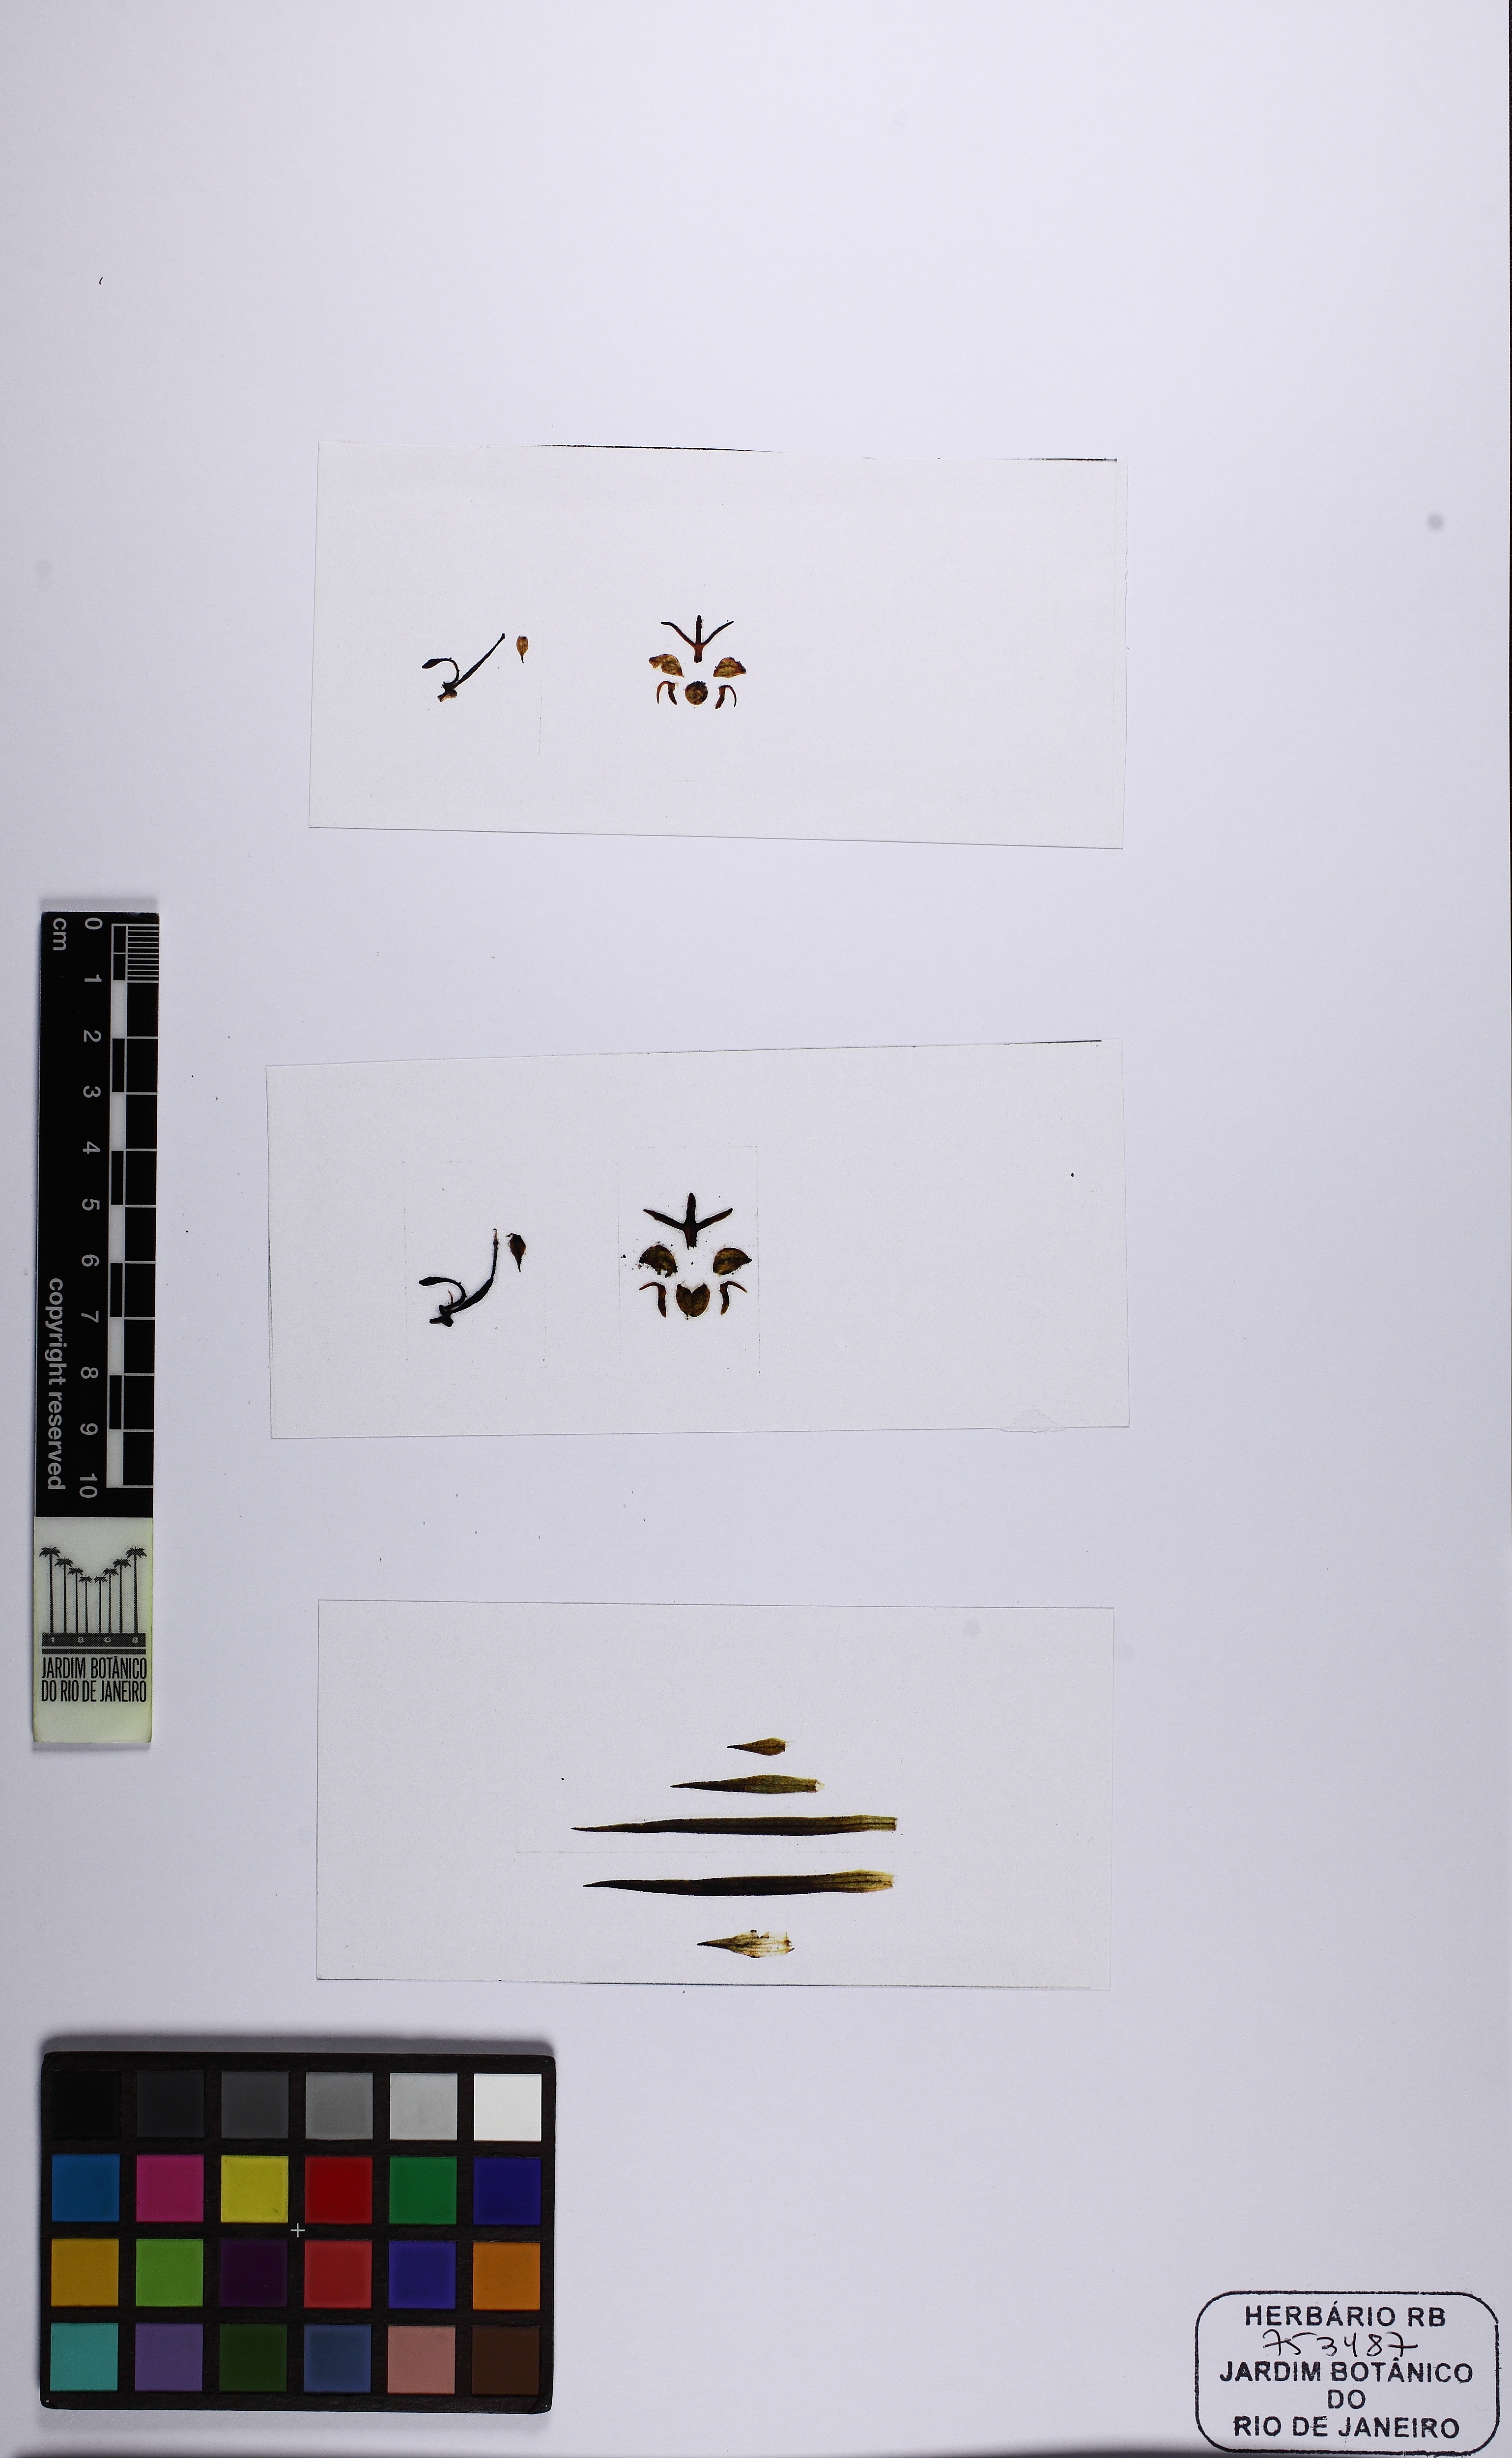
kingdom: Plantae
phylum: Tracheophyta
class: Liliopsida
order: Asparagales
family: Orchidaceae
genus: Habenaria
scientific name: Habenaria campylogyna
